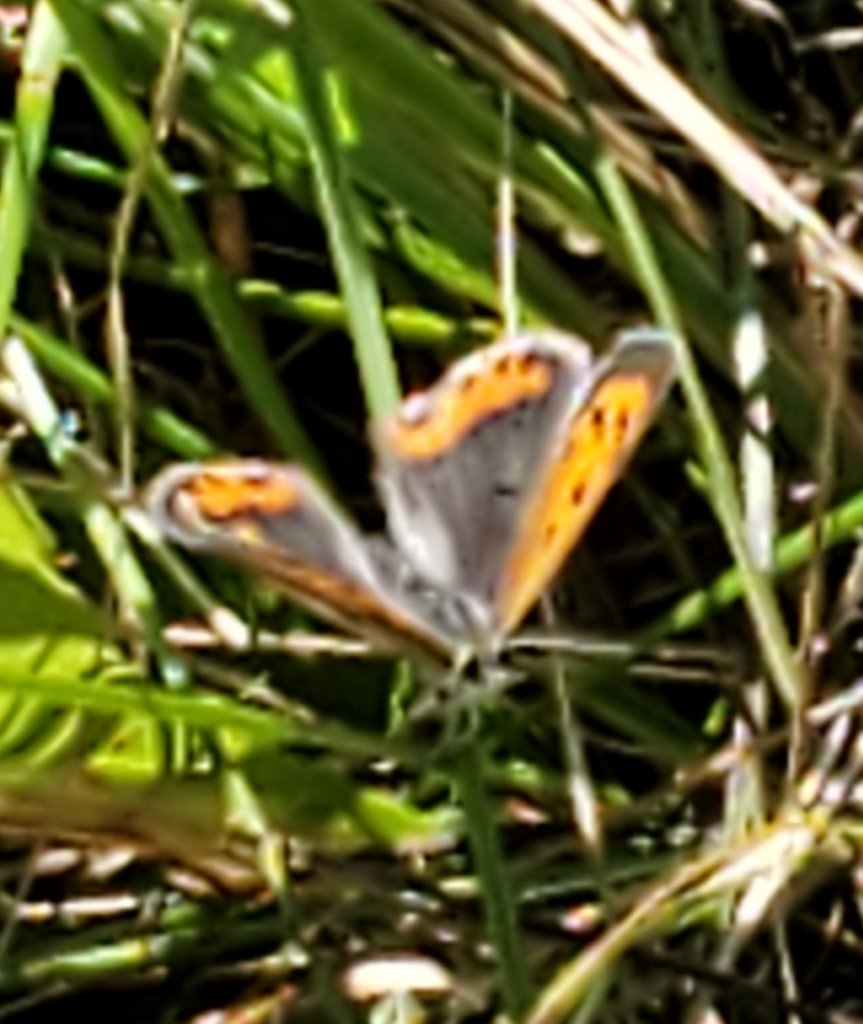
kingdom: Animalia
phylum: Arthropoda
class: Insecta
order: Lepidoptera
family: Sesiidae
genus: Sesia
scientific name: Sesia Lycaena hyllus
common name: Bronze Copper
